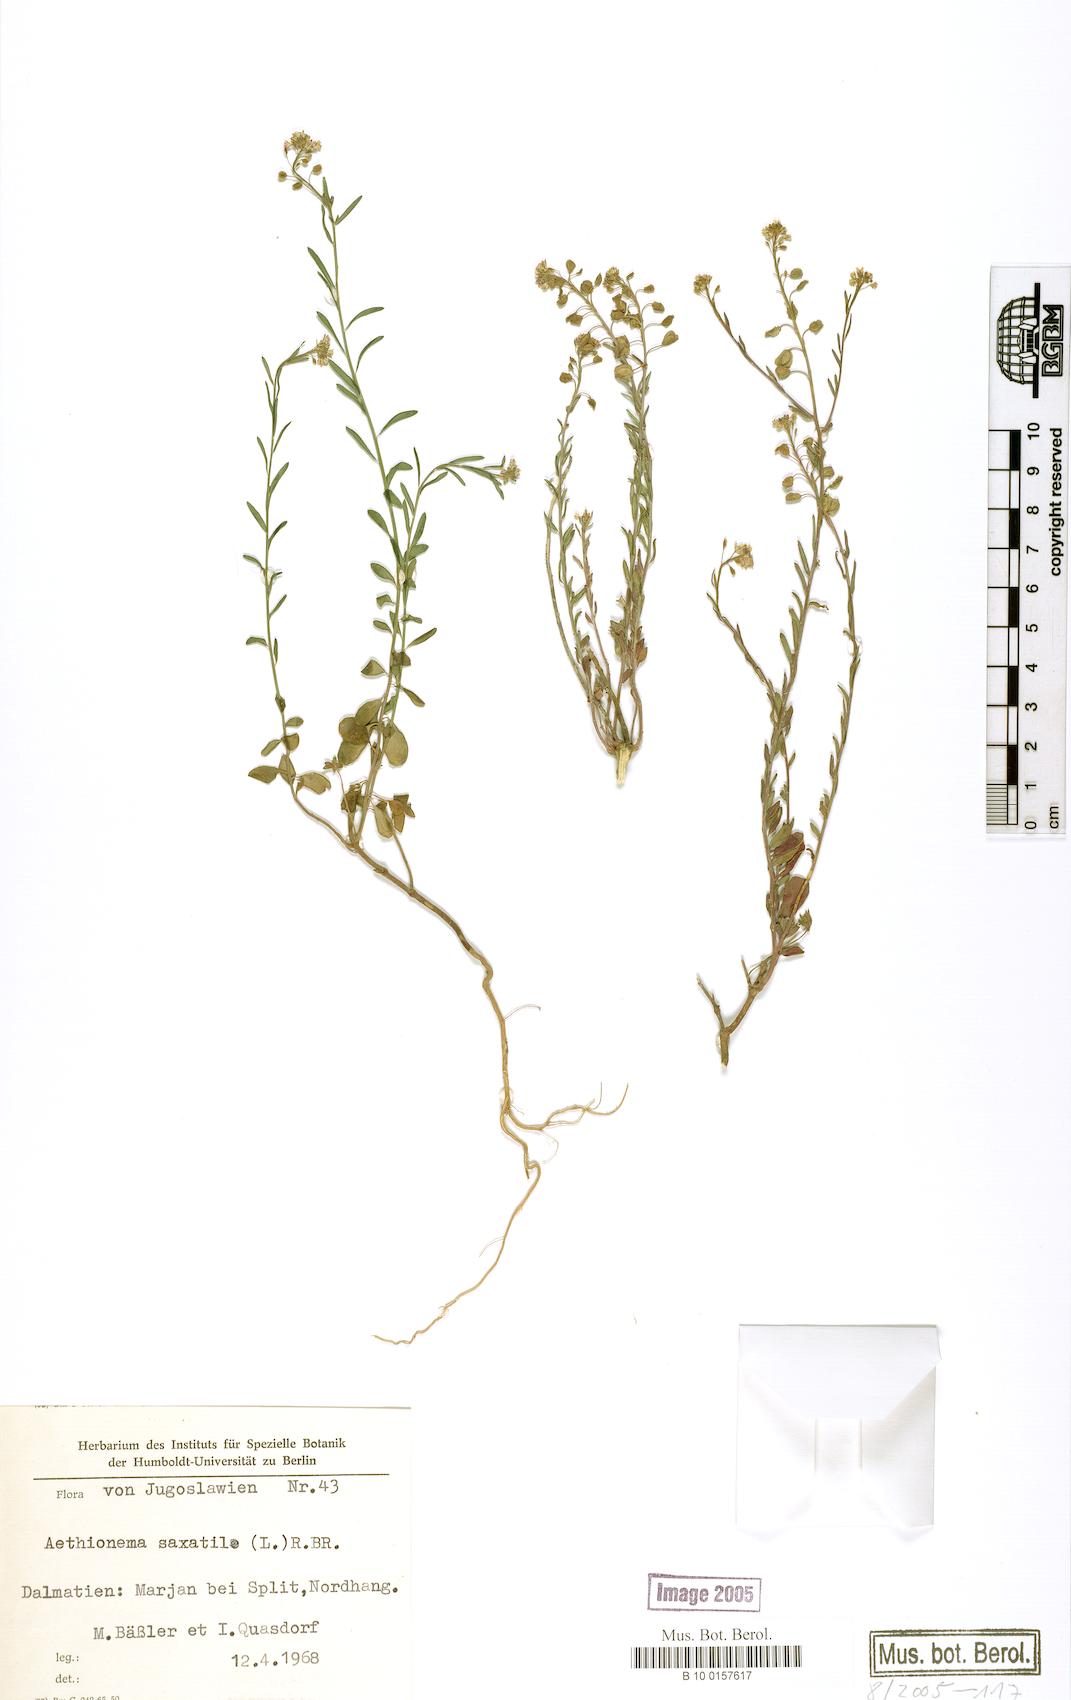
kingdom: Plantae
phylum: Tracheophyta
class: Magnoliopsida
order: Brassicales
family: Brassicaceae
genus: Aethionema
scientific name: Aethionema saxatile
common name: Burnt candytuft
